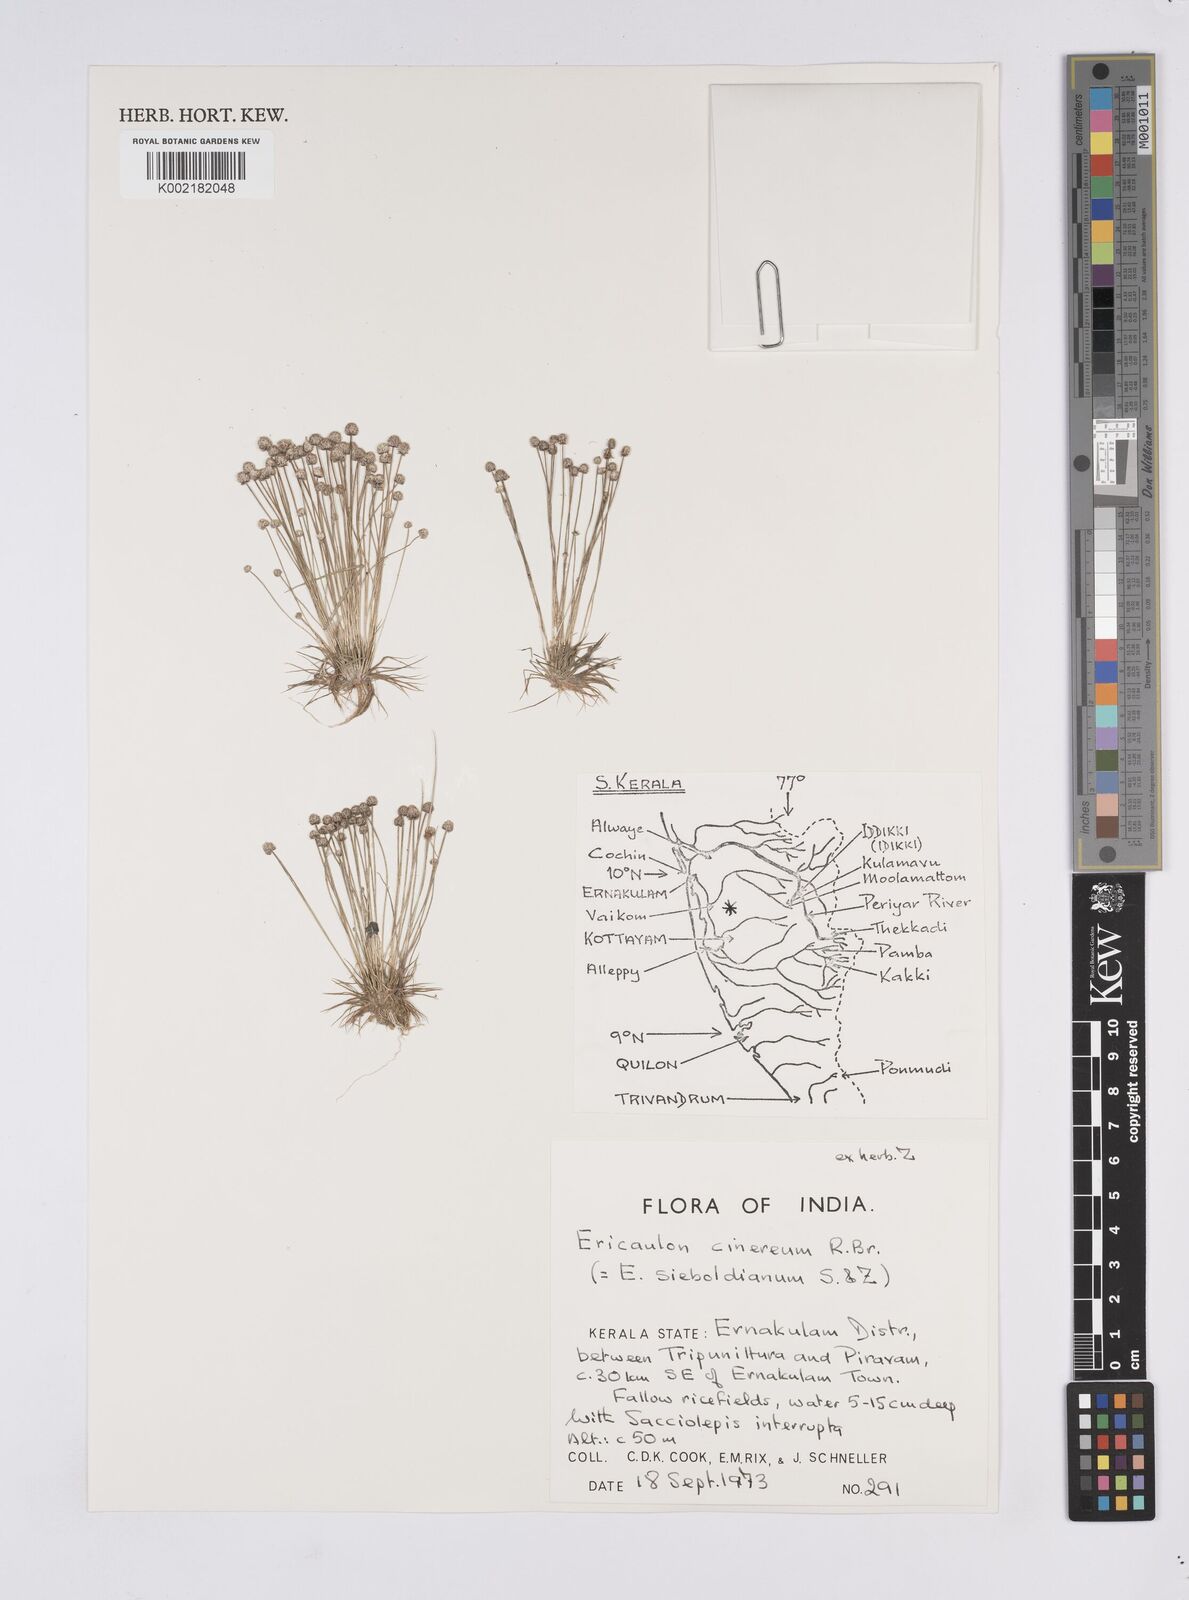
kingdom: Plantae
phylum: Tracheophyta
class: Liliopsida
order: Poales
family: Eriocaulaceae
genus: Eriocaulon
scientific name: Eriocaulon cinereum
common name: Ashy pipewort
